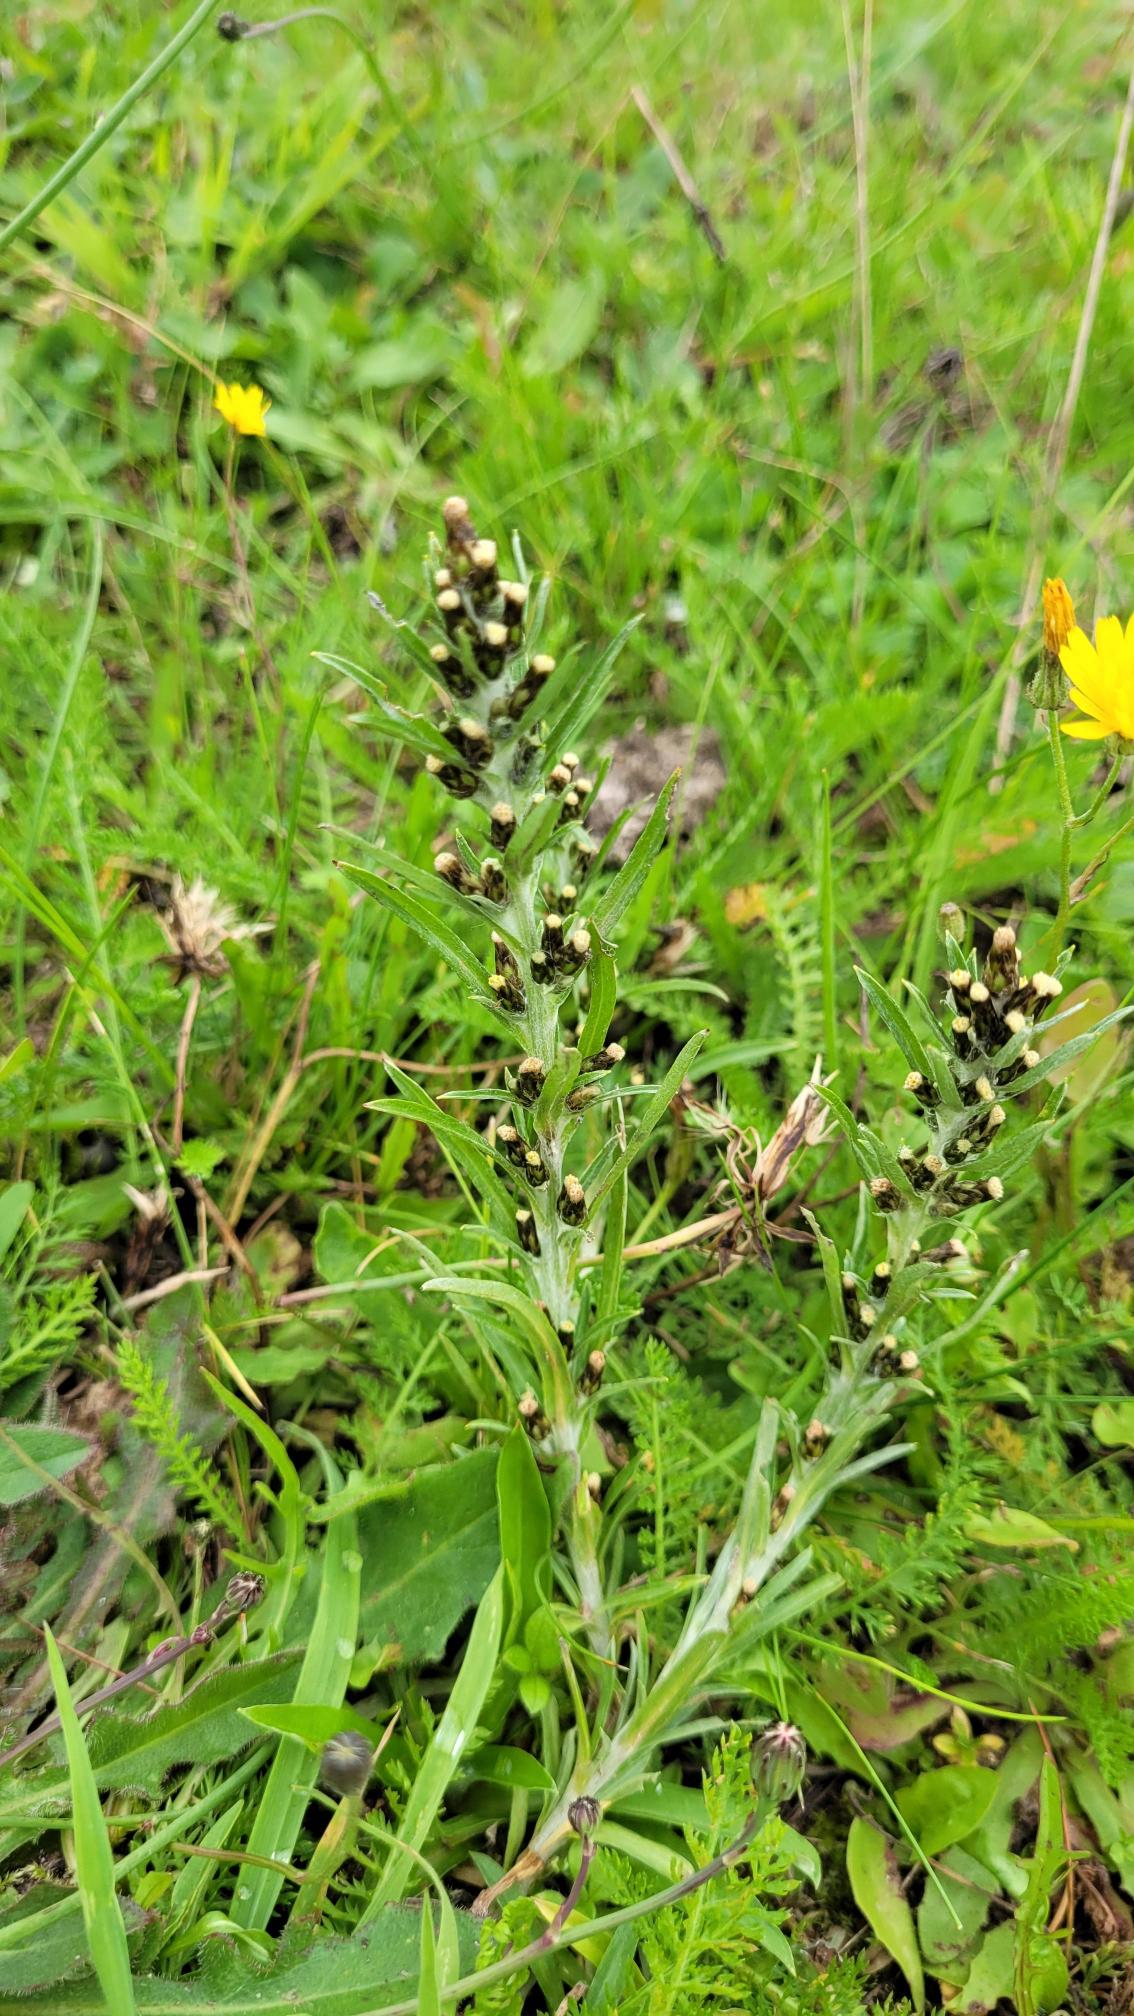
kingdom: Plantae
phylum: Tracheophyta
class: Magnoliopsida
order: Asterales
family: Asteraceae
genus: Omalotheca
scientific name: Omalotheca sylvatica
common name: Rank evighedsblomst
